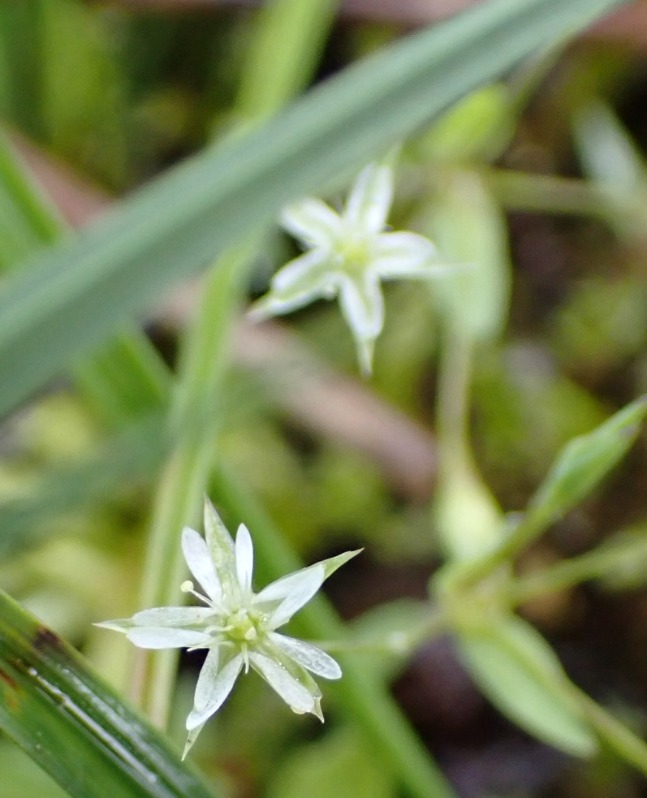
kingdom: Plantae
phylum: Tracheophyta
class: Magnoliopsida
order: Caryophyllales
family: Caryophyllaceae
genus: Stellaria
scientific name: Stellaria alsine
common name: Sump-fladstjerne
